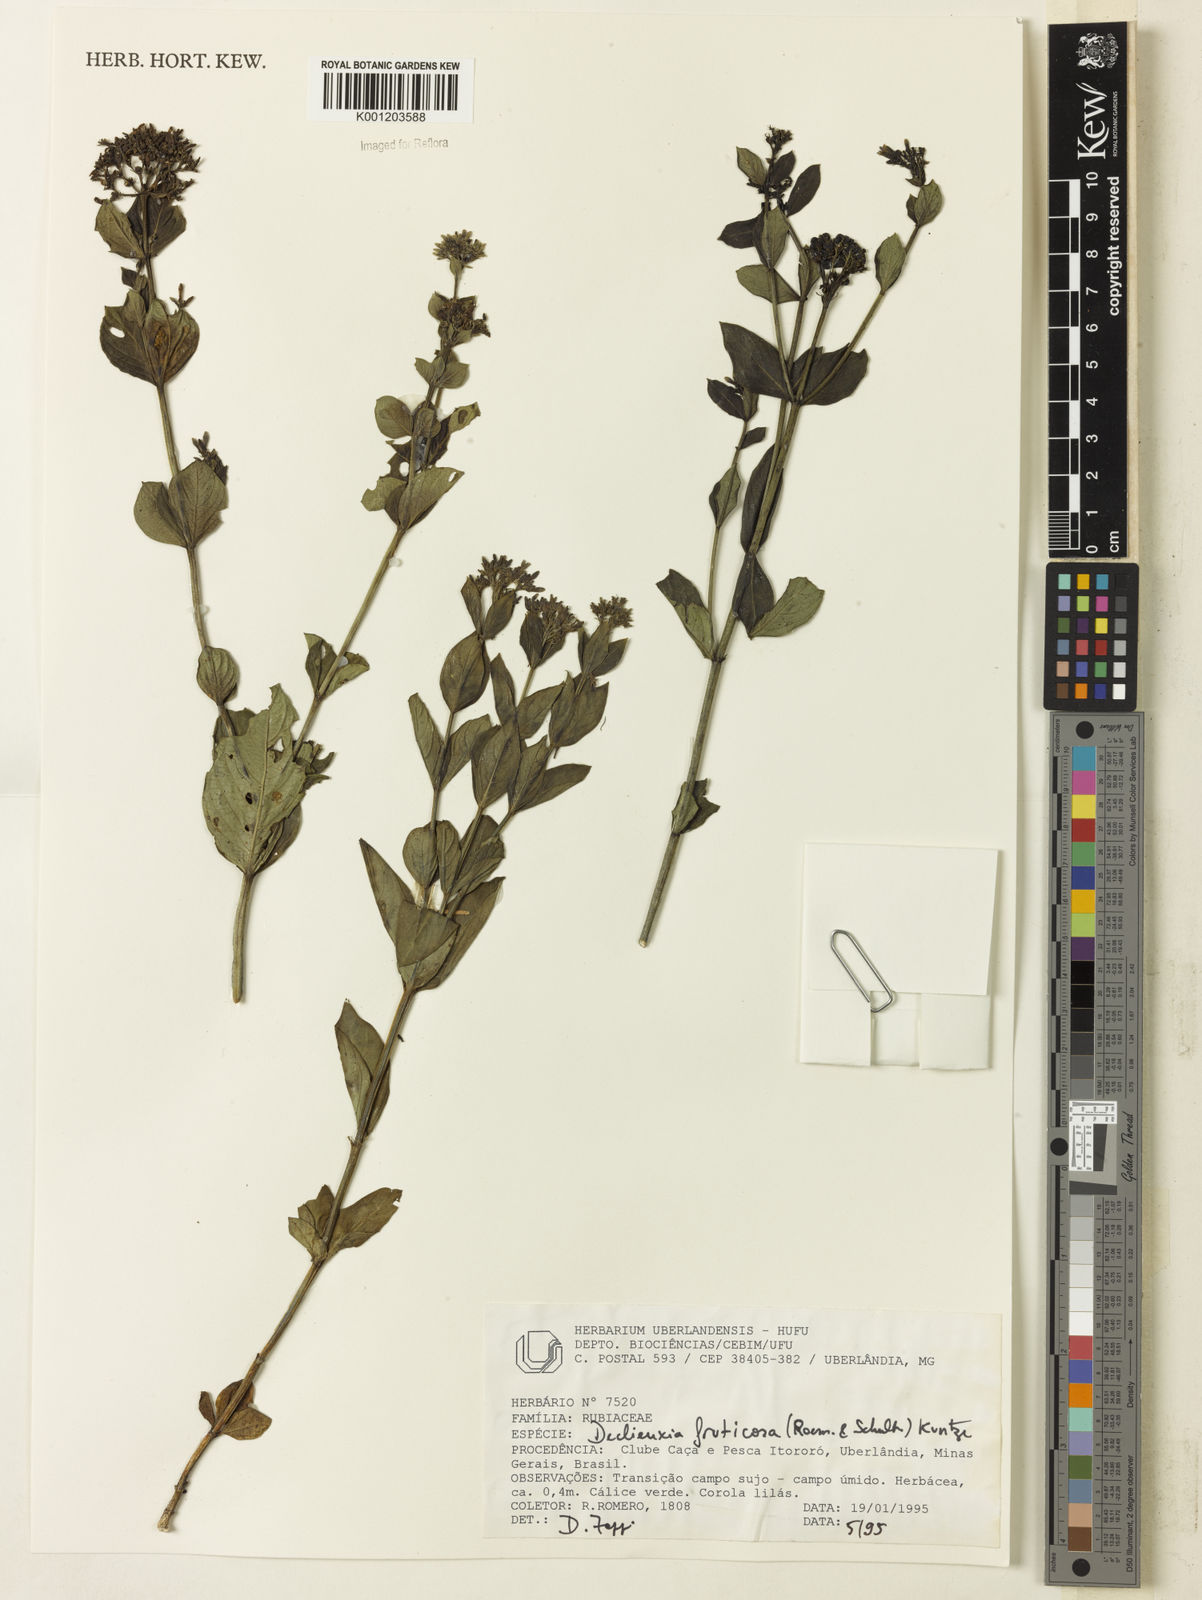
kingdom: Plantae
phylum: Tracheophyta
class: Magnoliopsida
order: Gentianales
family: Rubiaceae
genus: Declieuxia
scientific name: Declieuxia fruticosa
